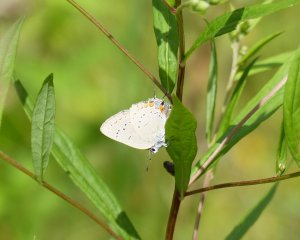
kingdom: Animalia
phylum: Arthropoda
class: Insecta
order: Lepidoptera
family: Lycaenidae
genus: Strymon
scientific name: Strymon acadica
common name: Acadian Hairstreak
